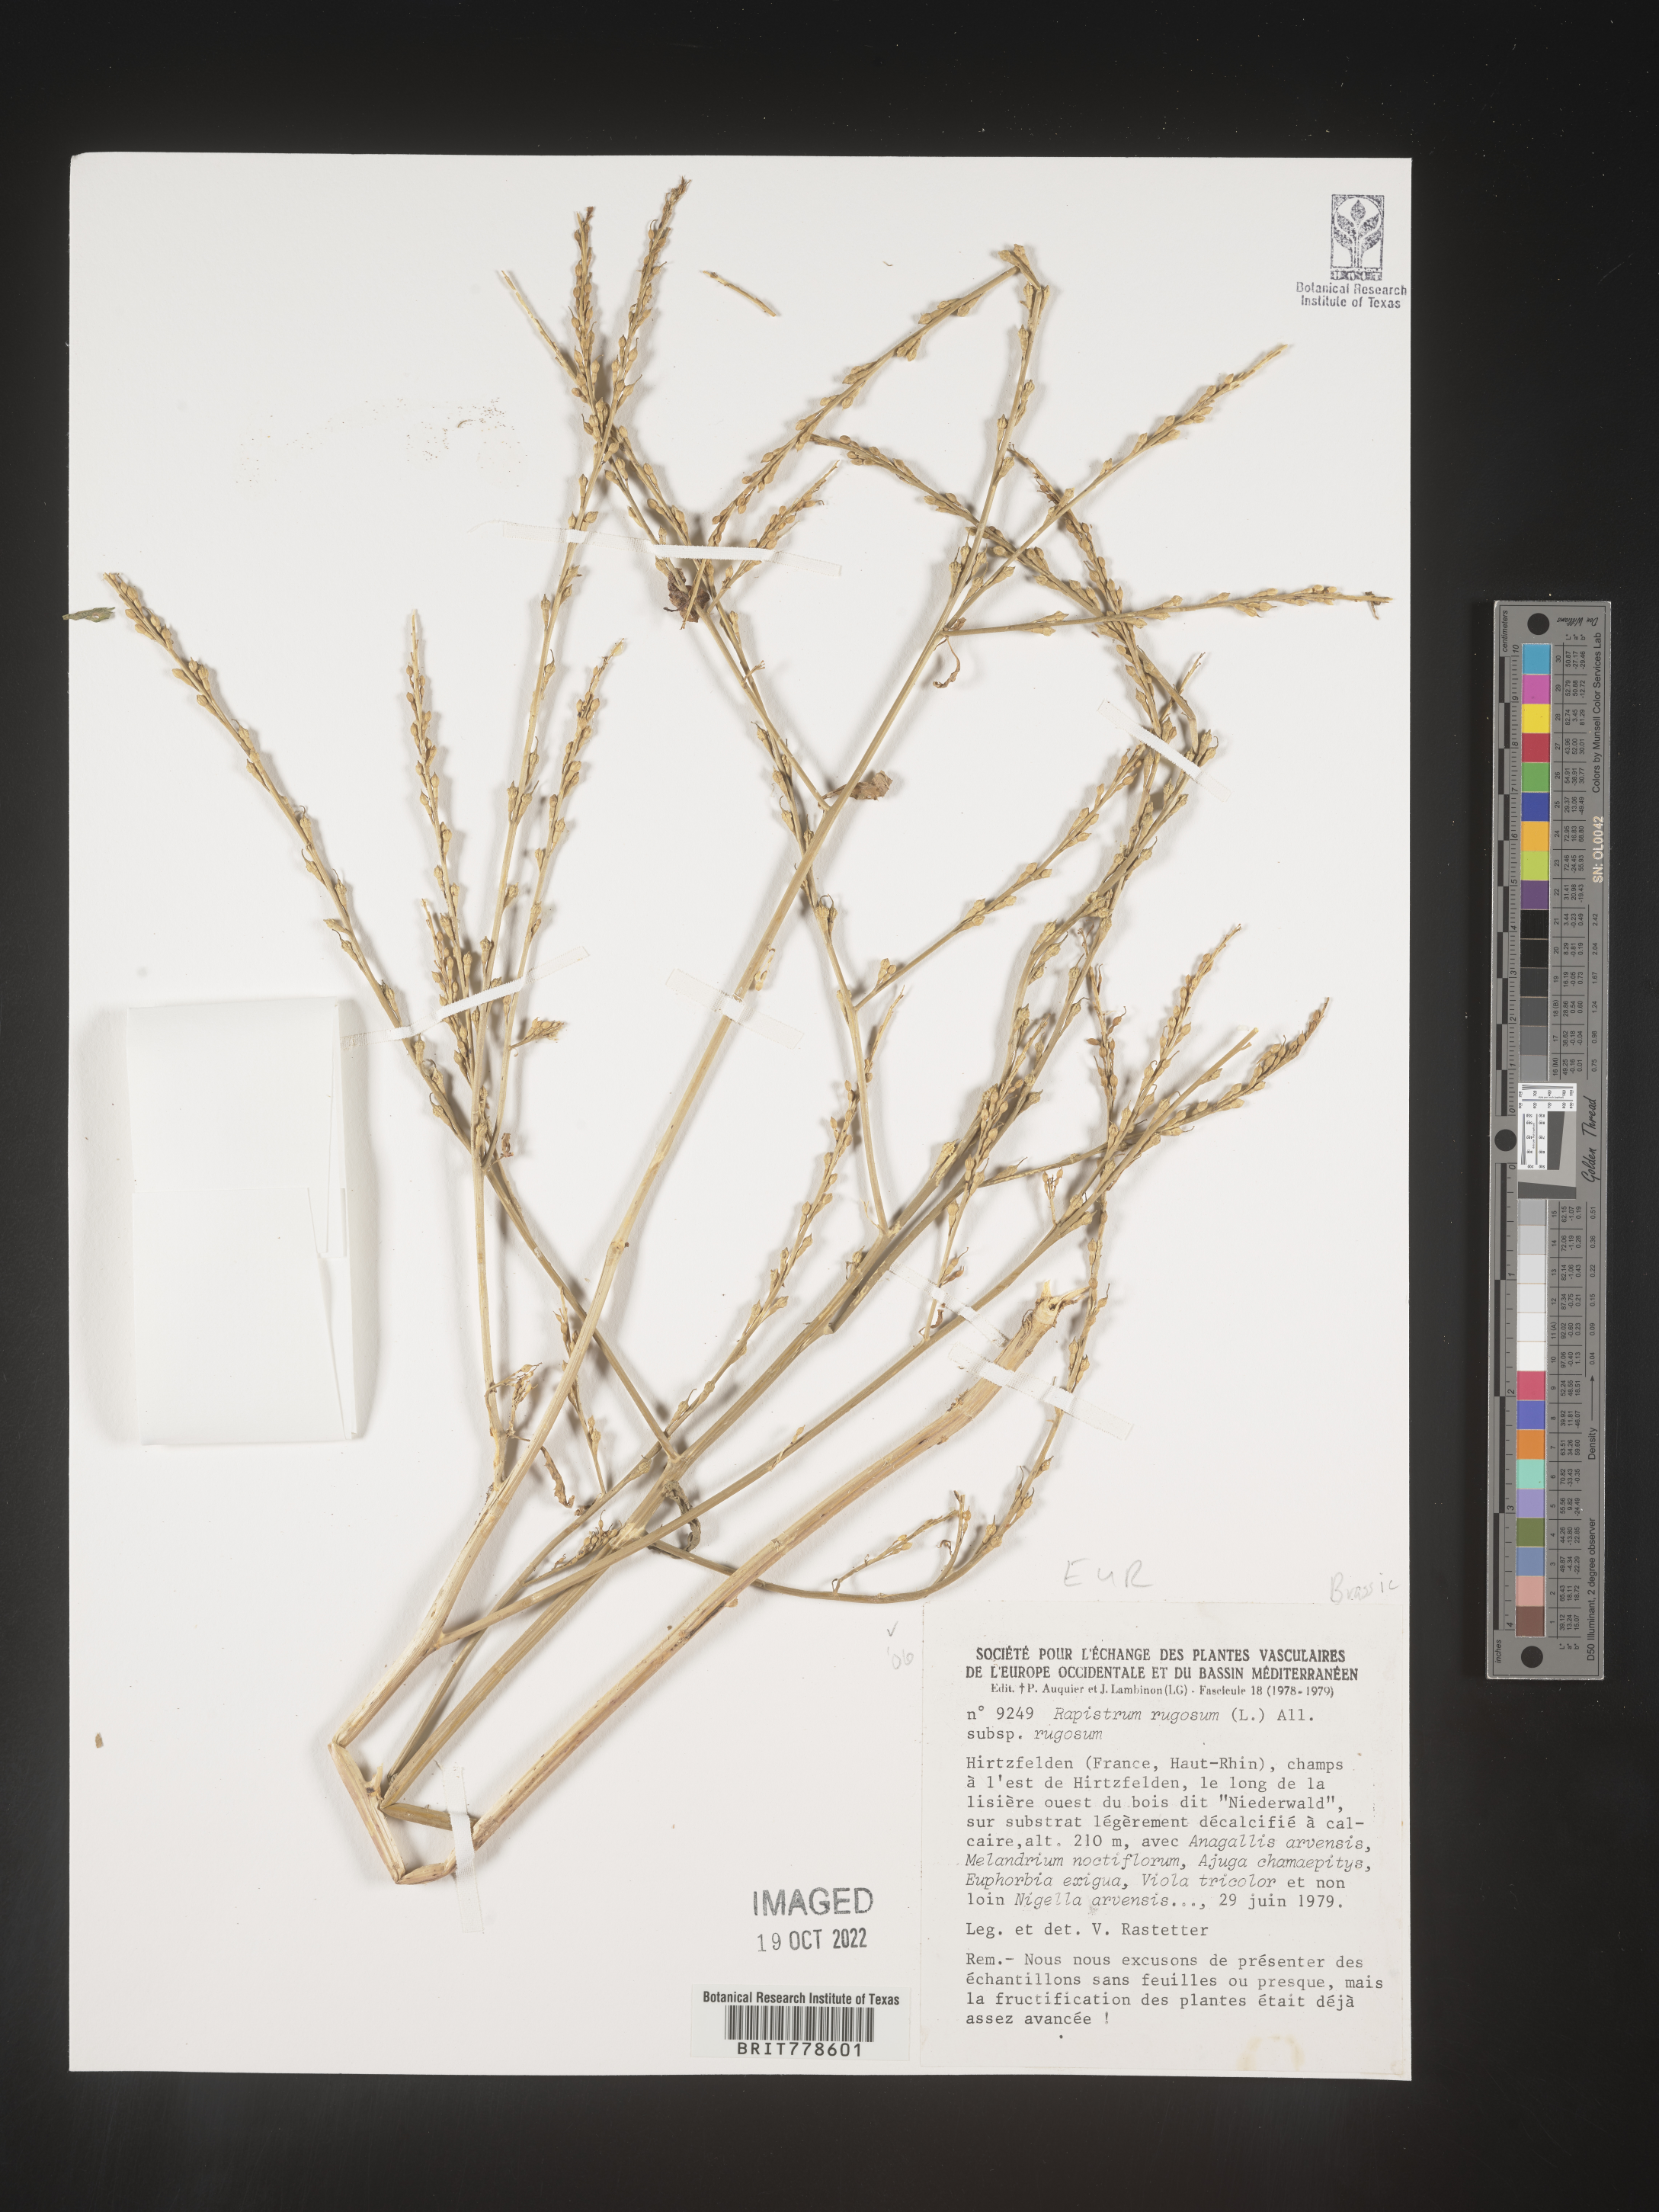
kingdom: Plantae
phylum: Tracheophyta
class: Magnoliopsida
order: Brassicales
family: Brassicaceae
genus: Rapistrum
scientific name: Rapistrum
